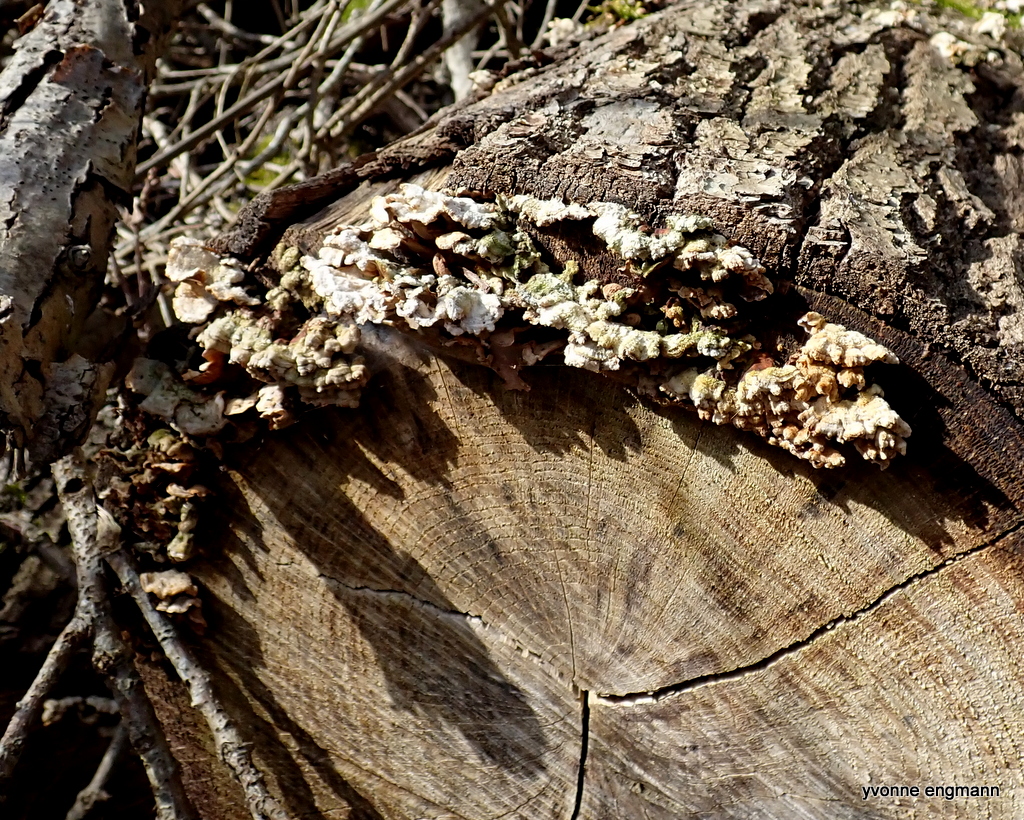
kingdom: Fungi
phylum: Basidiomycota
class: Agaricomycetes
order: Russulales
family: Stereaceae
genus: Stereum
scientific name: Stereum hirsutum
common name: håret lædersvamp
